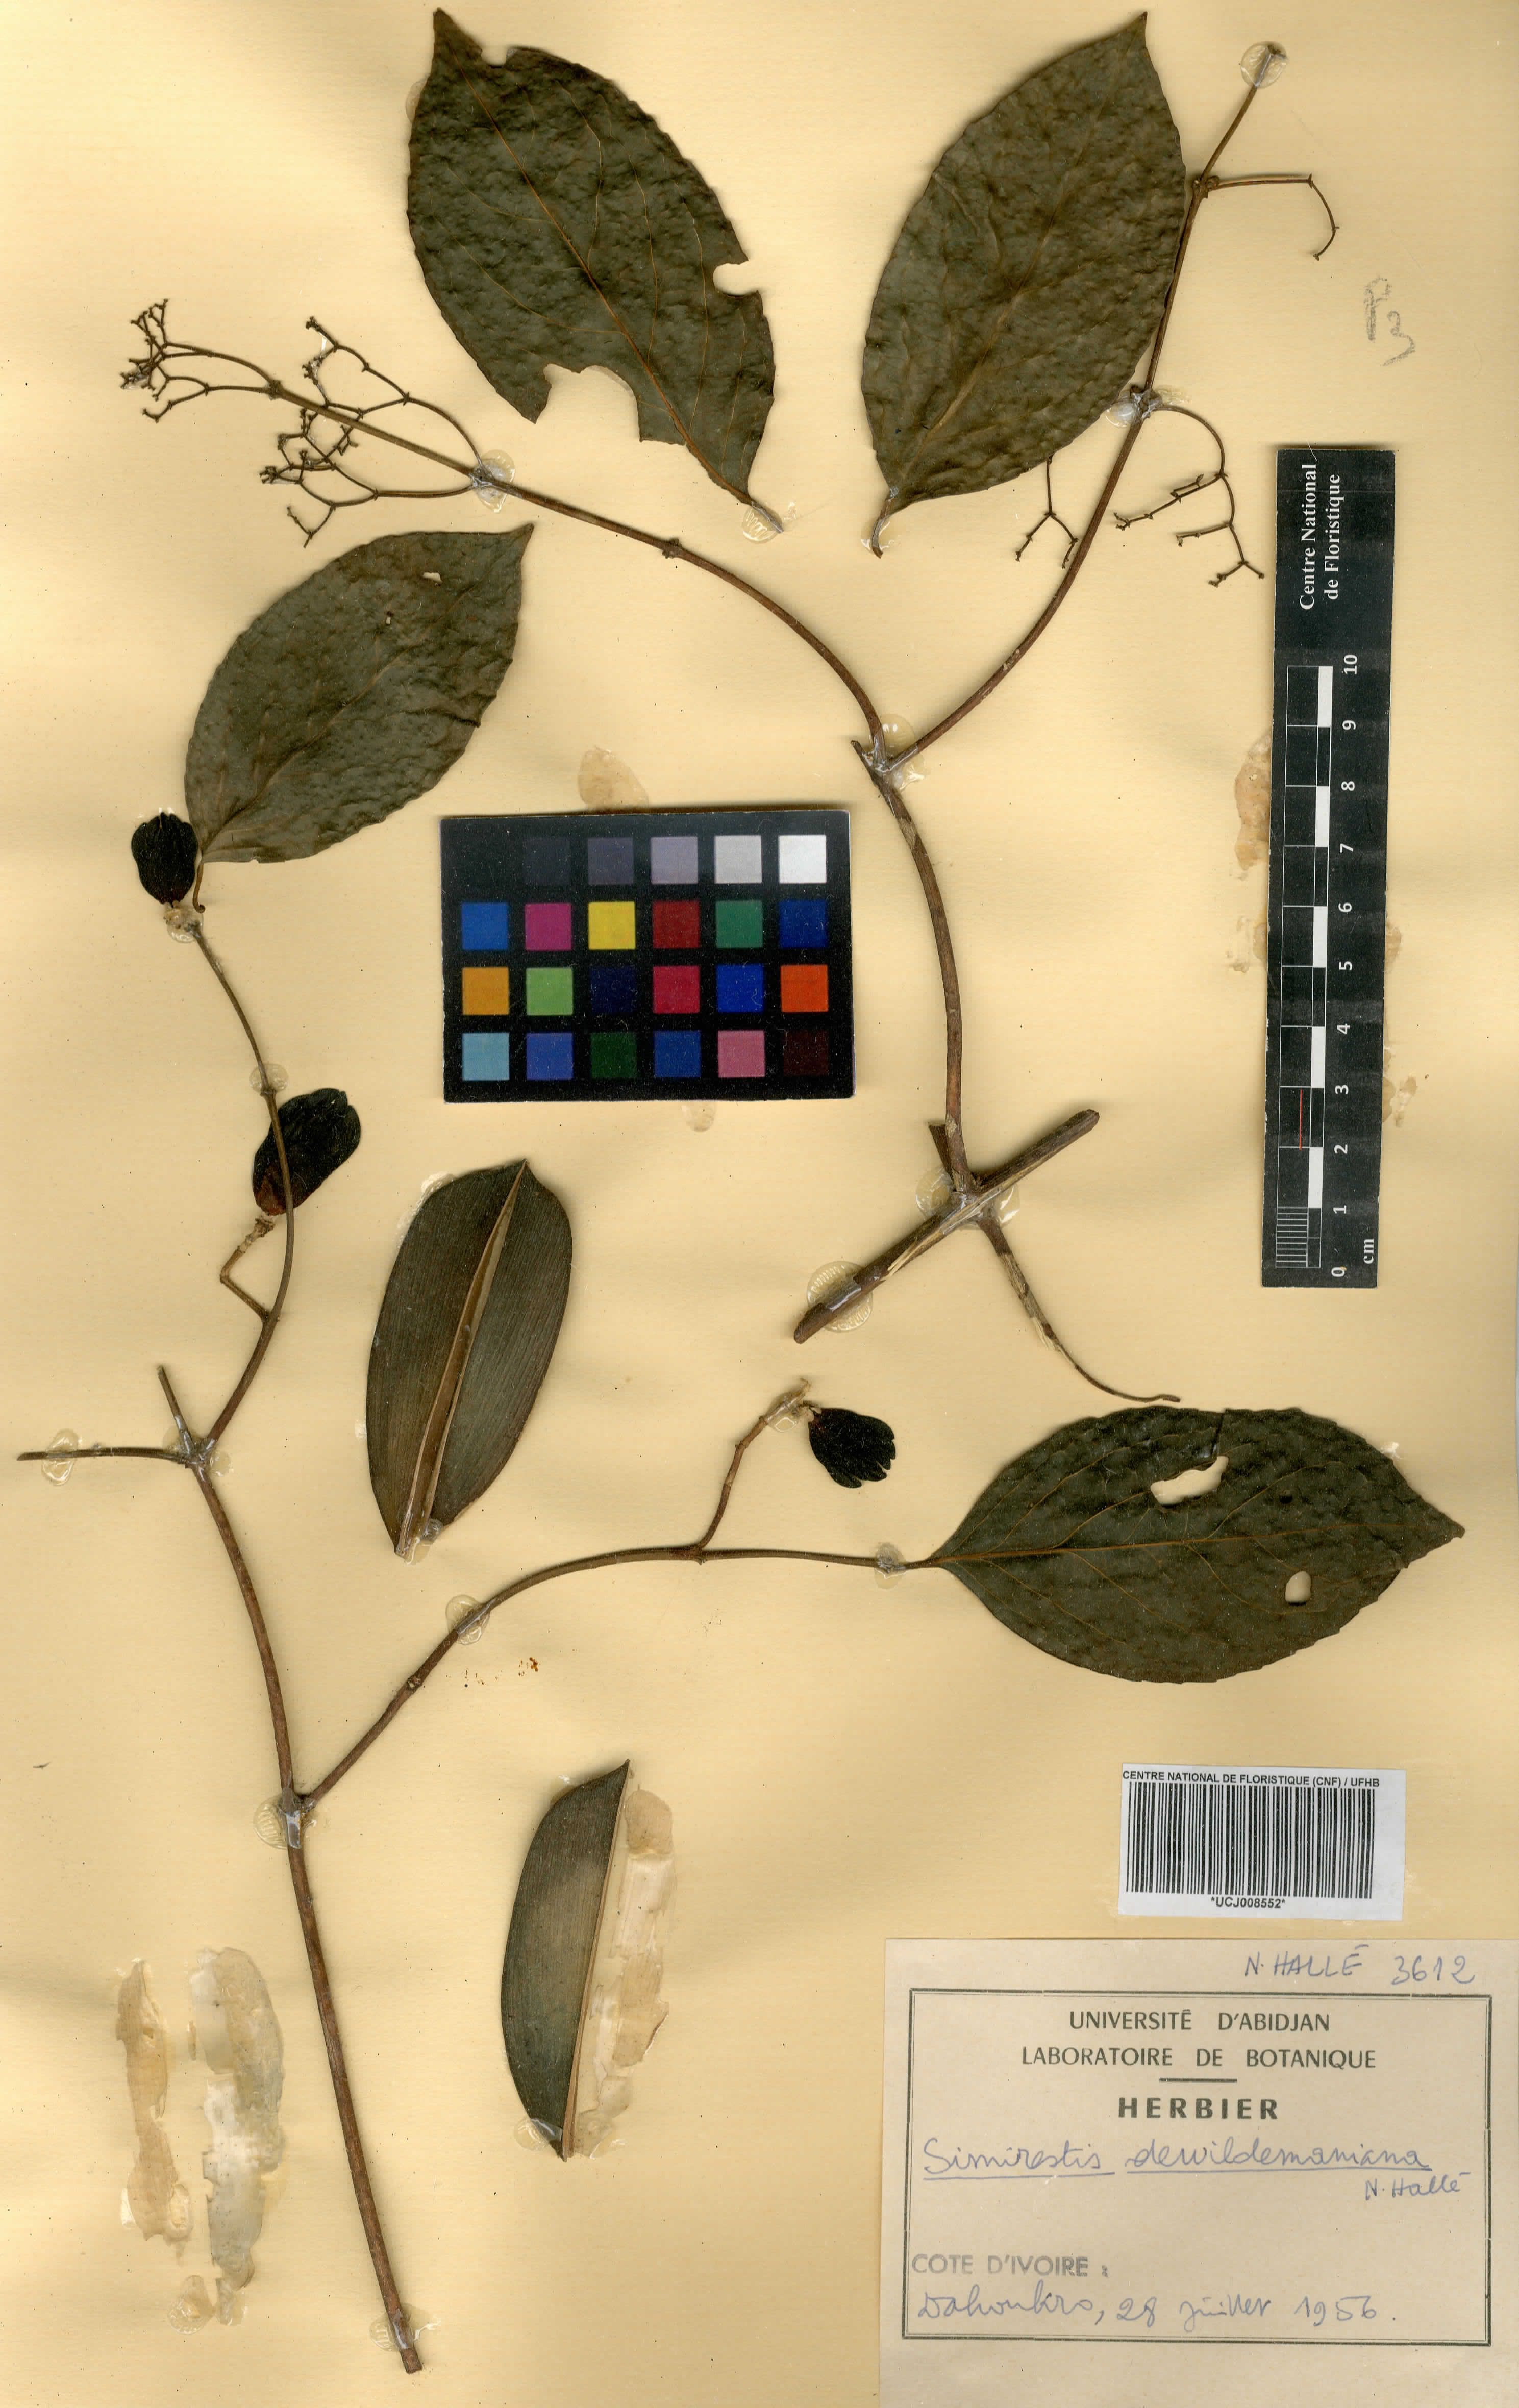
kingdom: Plantae
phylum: Tracheophyta
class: Magnoliopsida
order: Celastrales
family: Celastraceae
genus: Pristimera
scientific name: Pristimera dewildemaniana
